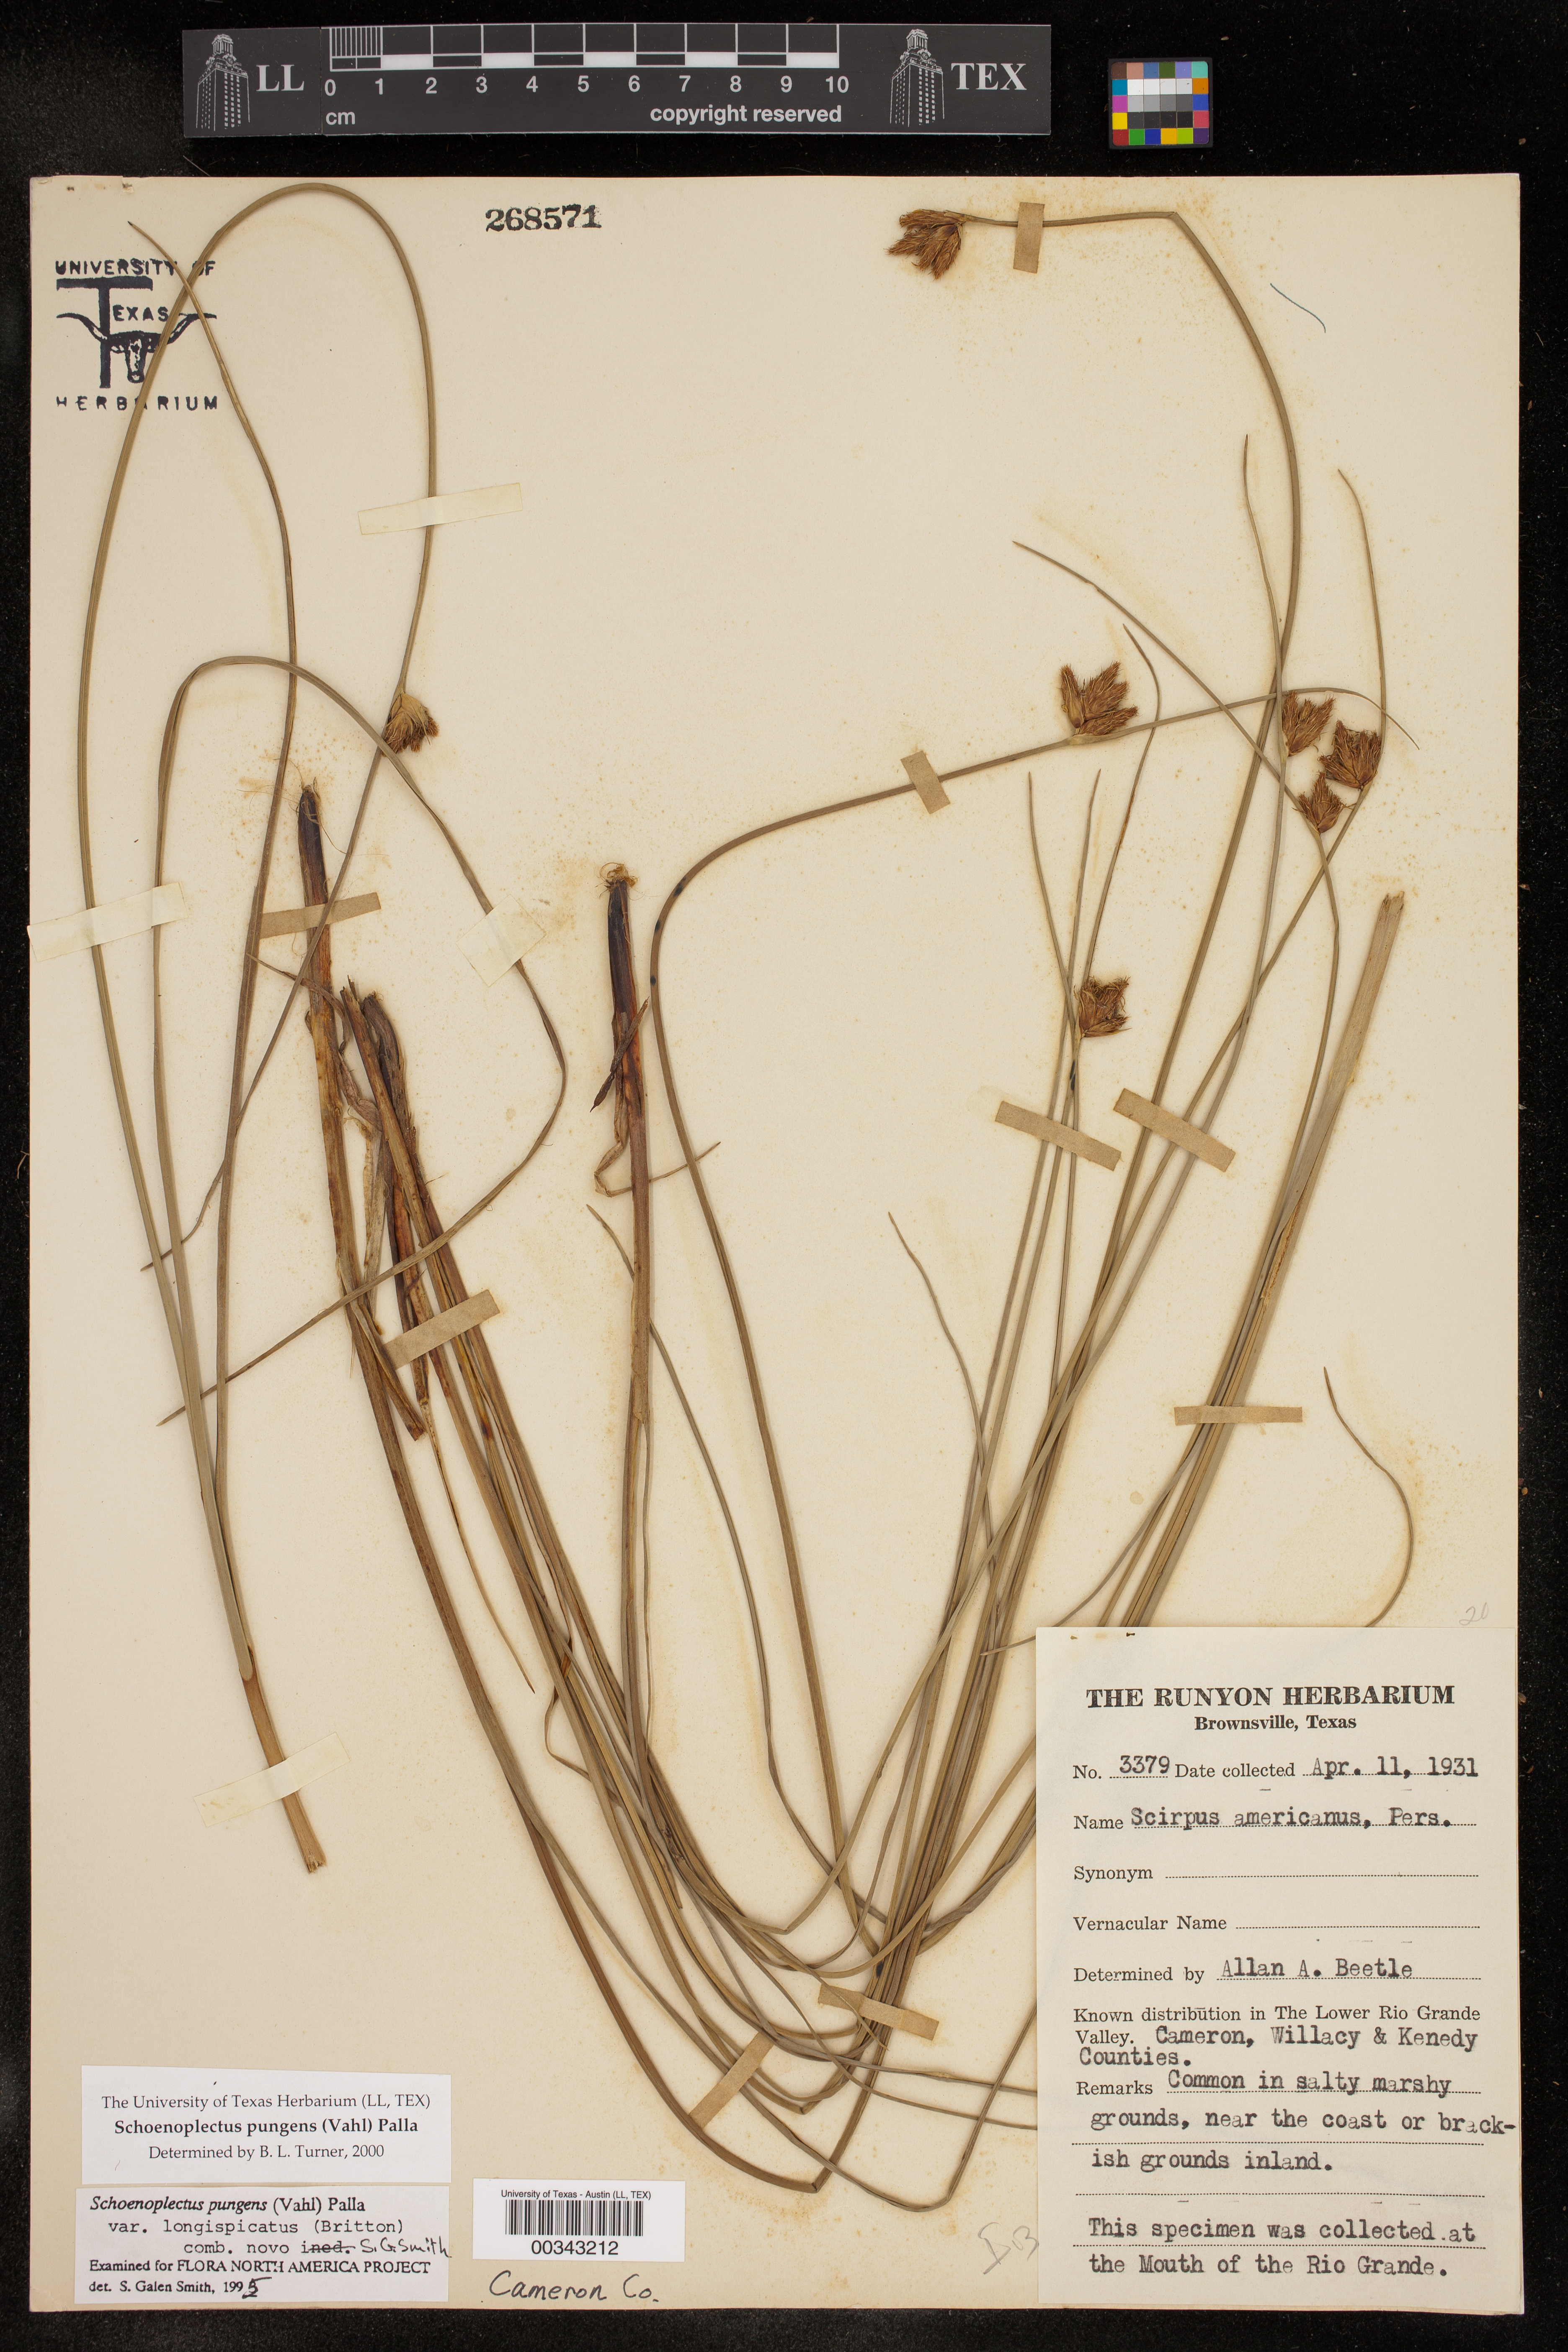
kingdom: Plantae
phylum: Tracheophyta
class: Liliopsida
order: Poales
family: Cyperaceae
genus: Schoenoplectus
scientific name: Schoenoplectus pungens
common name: Sharp club-rush
